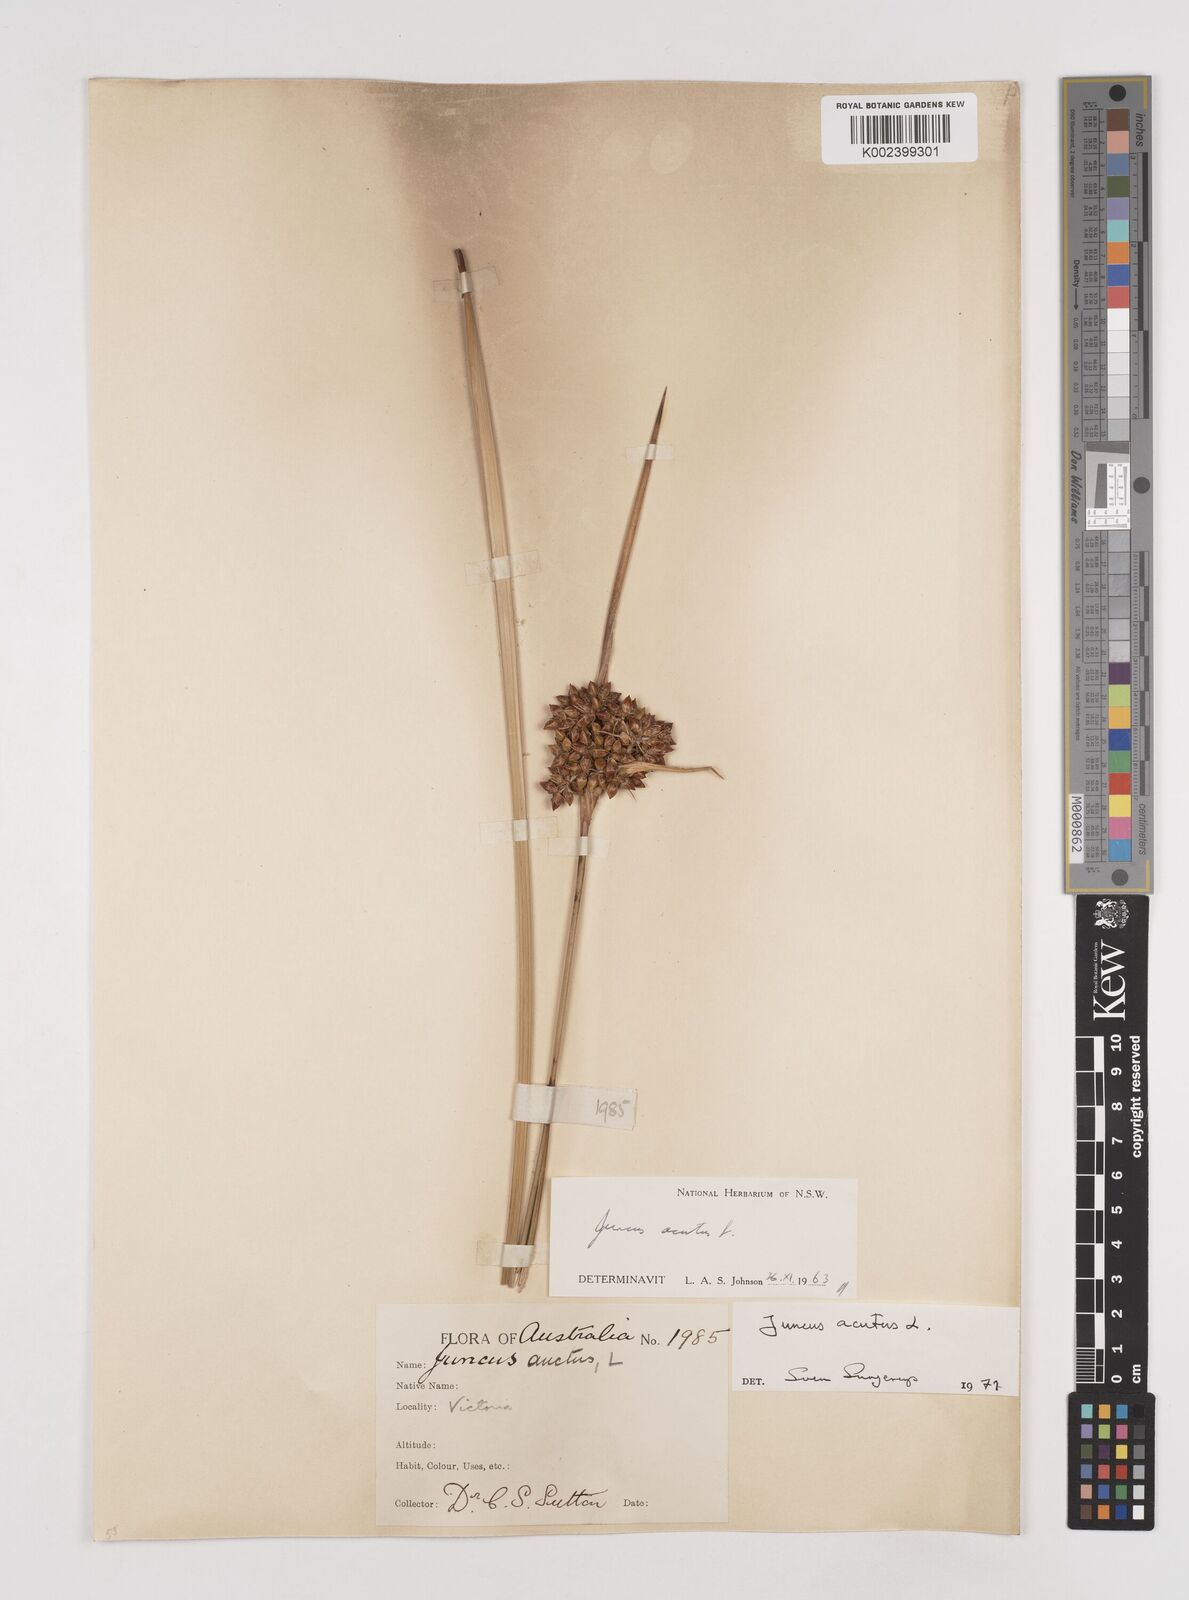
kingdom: Plantae
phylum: Tracheophyta
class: Liliopsida
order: Poales
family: Juncaceae
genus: Juncus
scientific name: Juncus acutus
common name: Sharp rush
